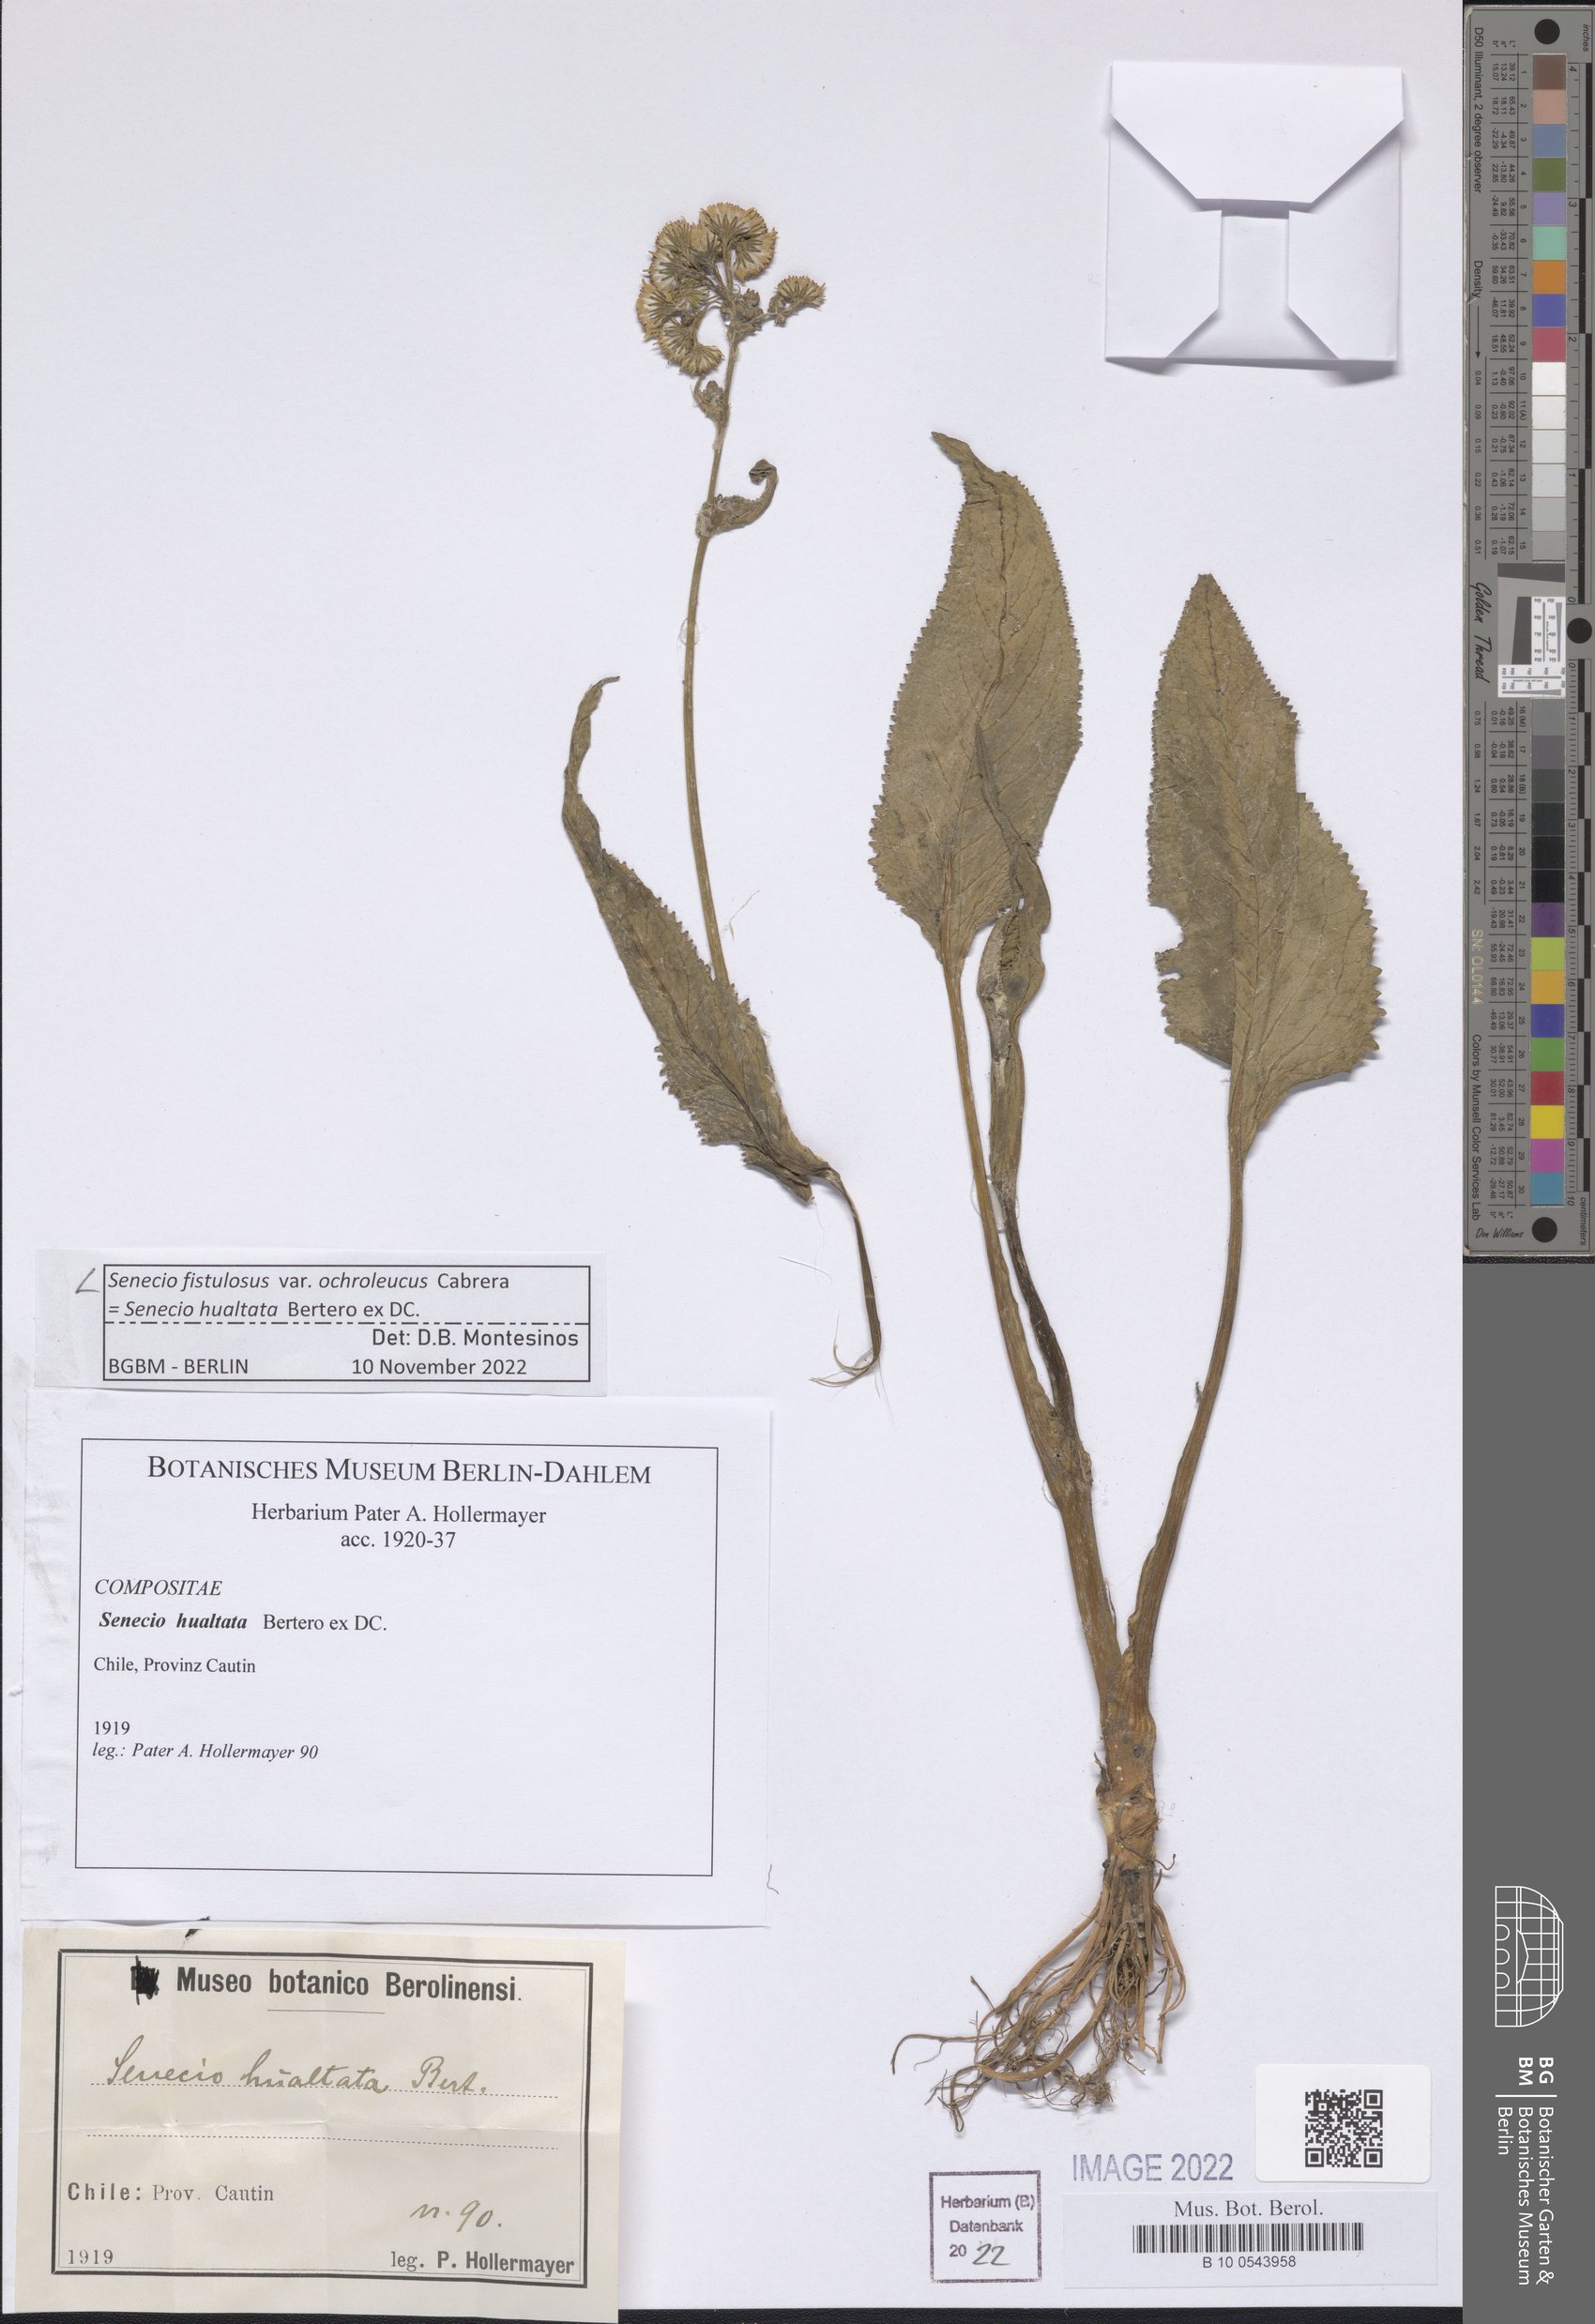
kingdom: Plantae
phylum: Tracheophyta
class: Magnoliopsida
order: Asterales
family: Asteraceae
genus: Senecio
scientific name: Senecio fistulosus
